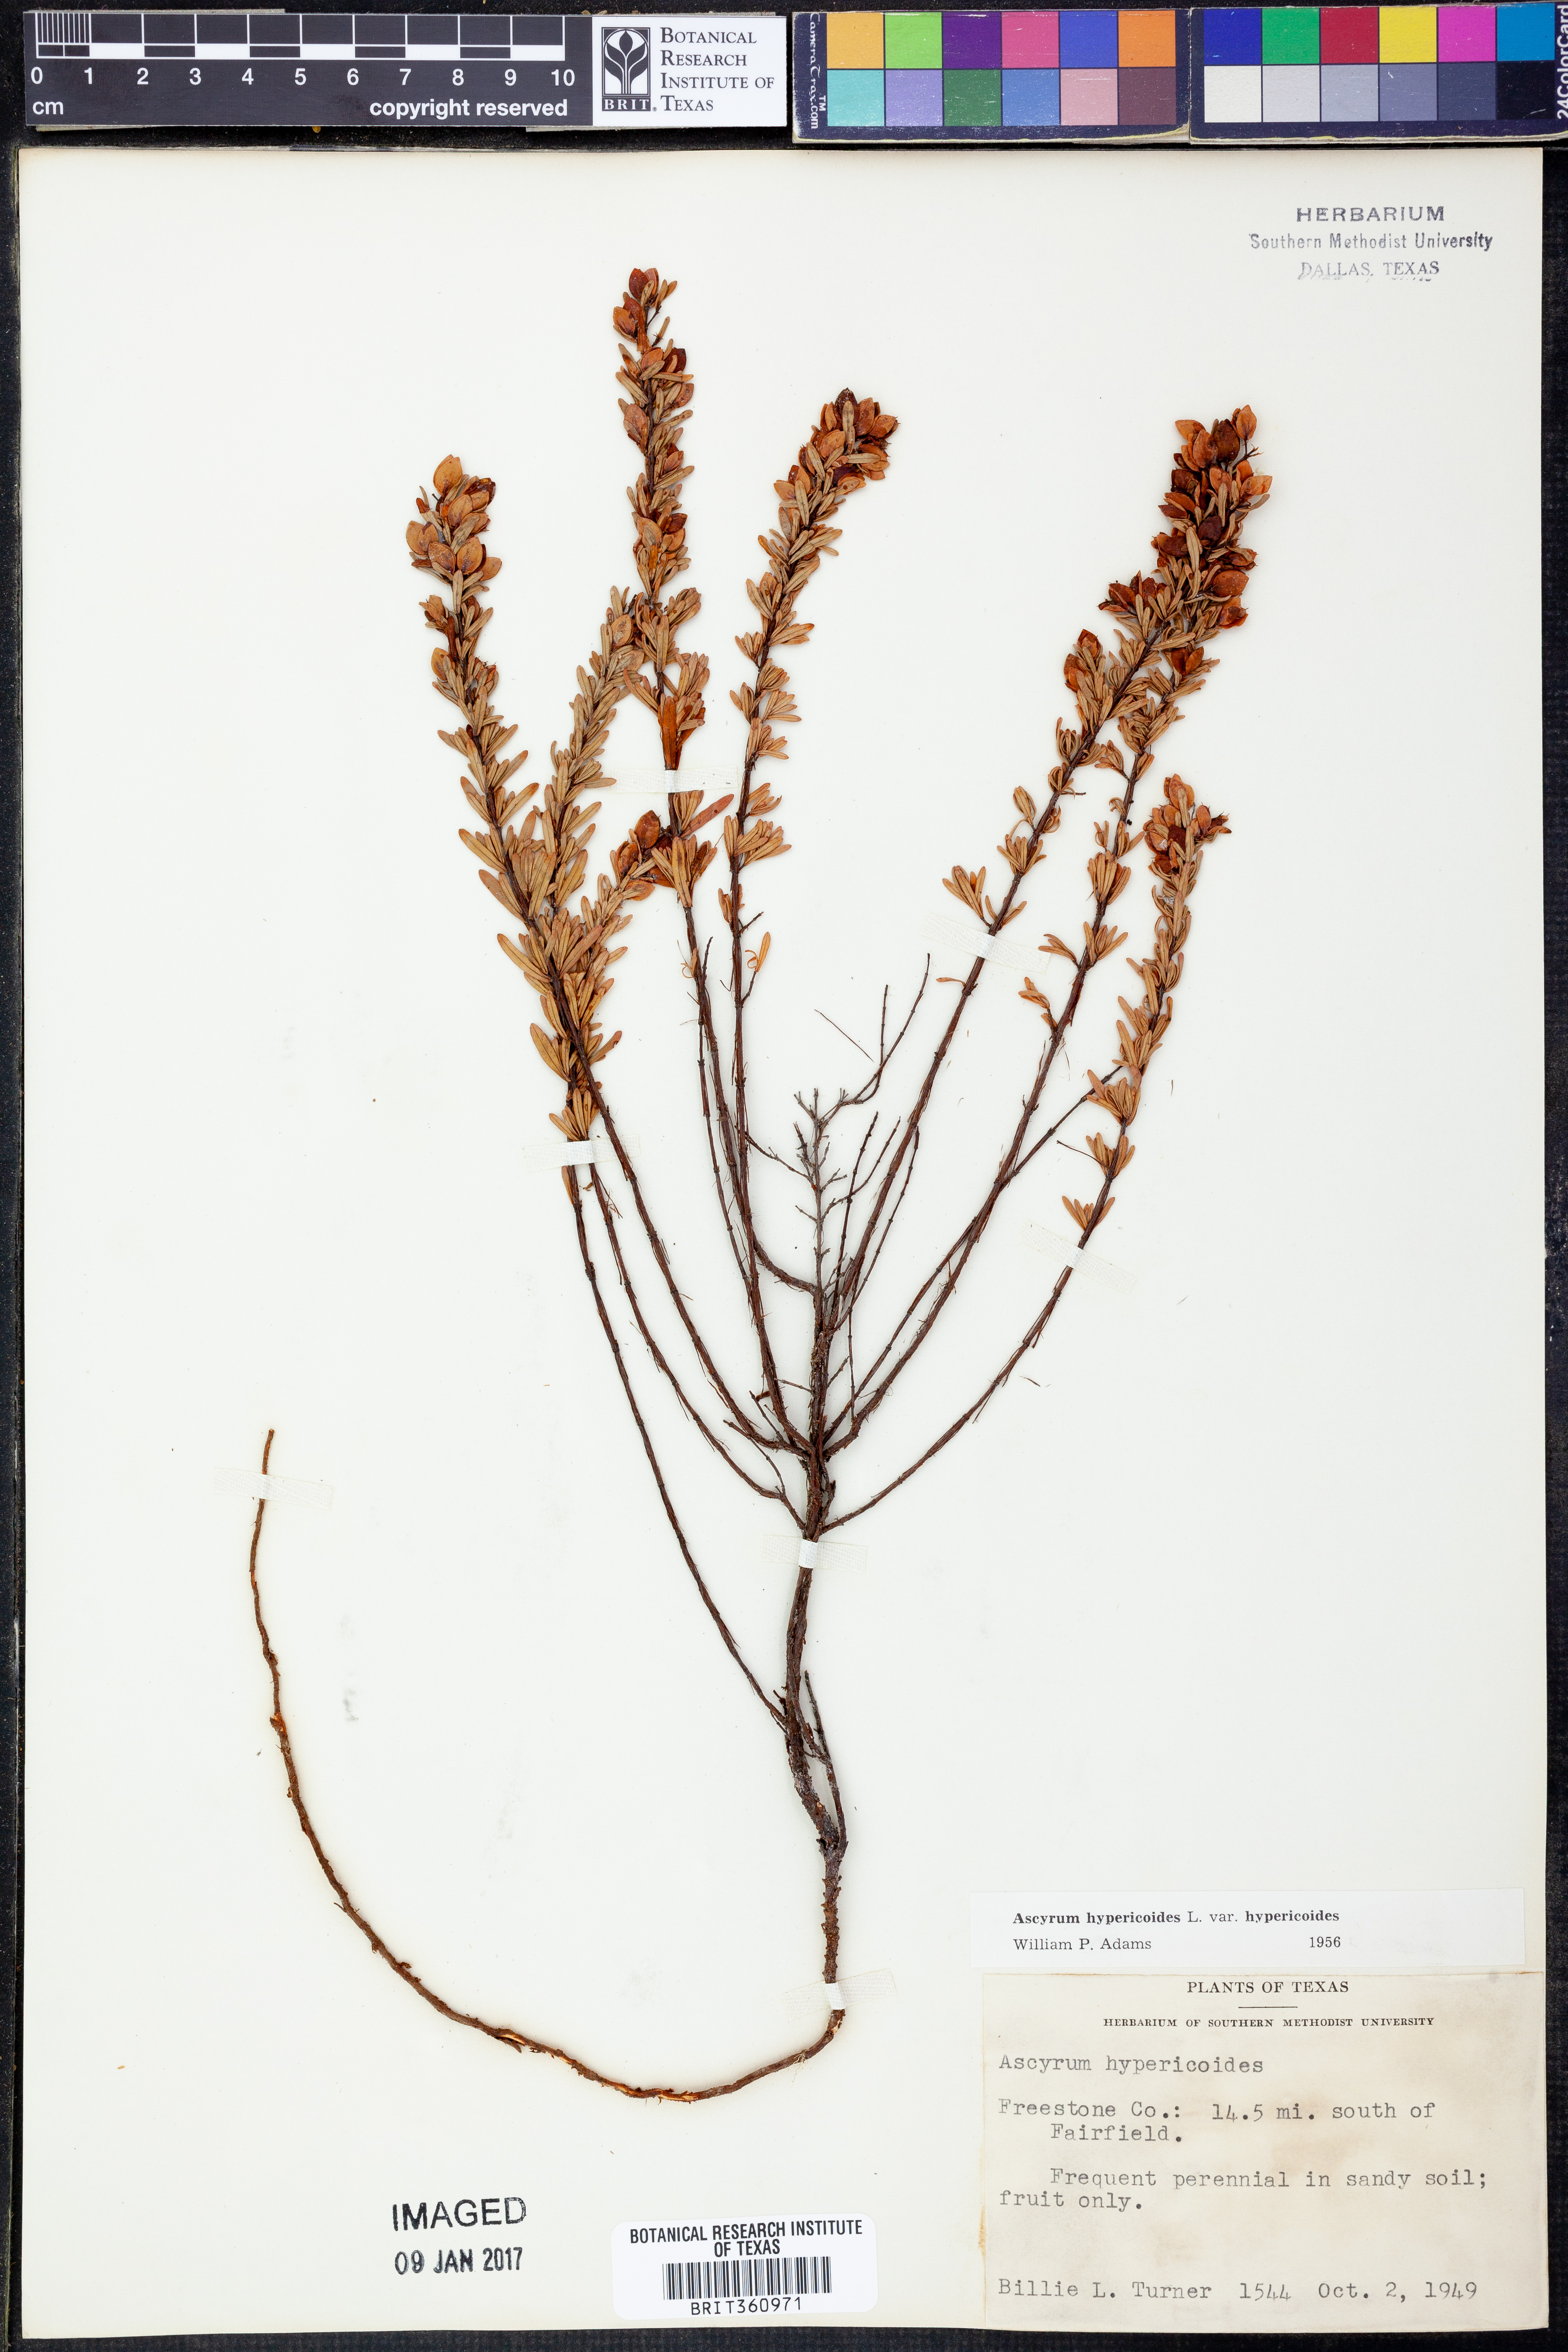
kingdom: Plantae
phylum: Tracheophyta
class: Magnoliopsida
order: Malpighiales
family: Hypericaceae
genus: Hypericum
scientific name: Hypericum hypericoides
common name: St. andrew's cross
